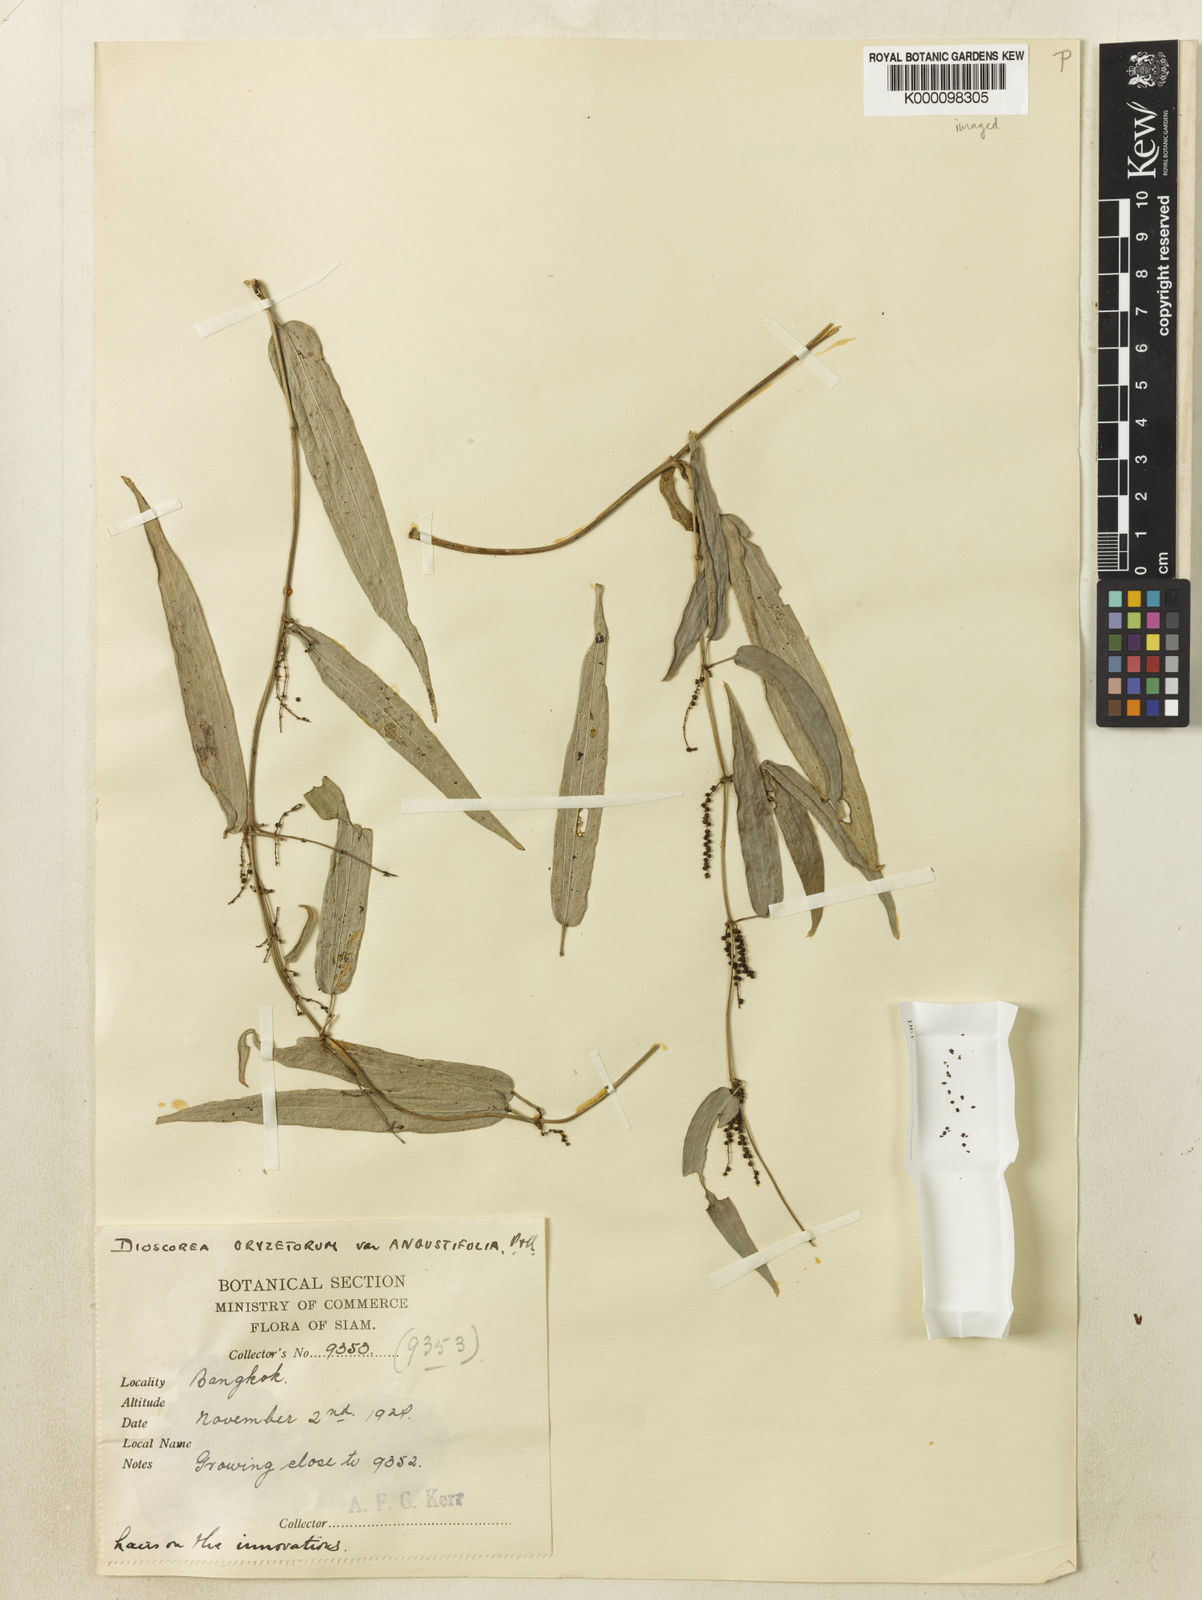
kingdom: Plantae
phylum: Tracheophyta
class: Liliopsida
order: Dioscoreales
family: Dioscoreaceae
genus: Dioscorea
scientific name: Dioscorea oryzetorum
